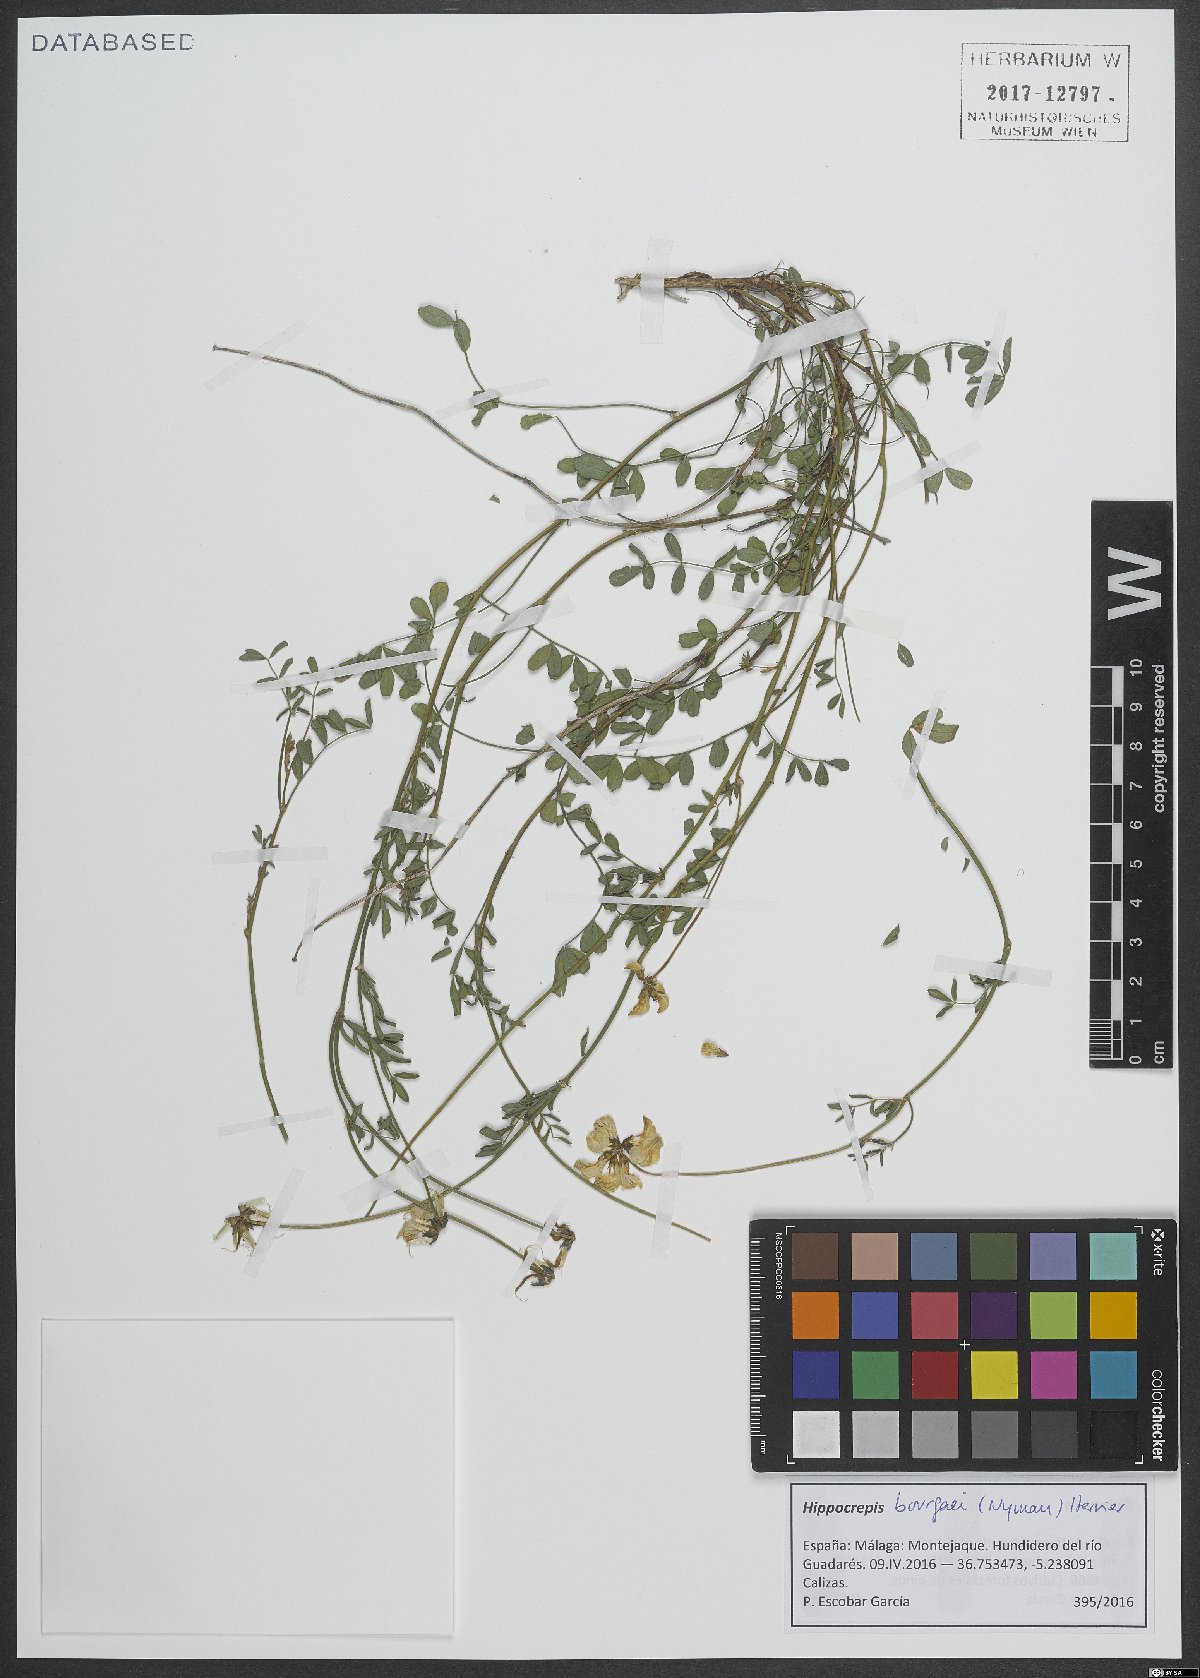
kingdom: Plantae
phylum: Tracheophyta
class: Magnoliopsida
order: Fabales
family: Fabaceae
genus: Hippocrepis
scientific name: Hippocrepis bourgaei
